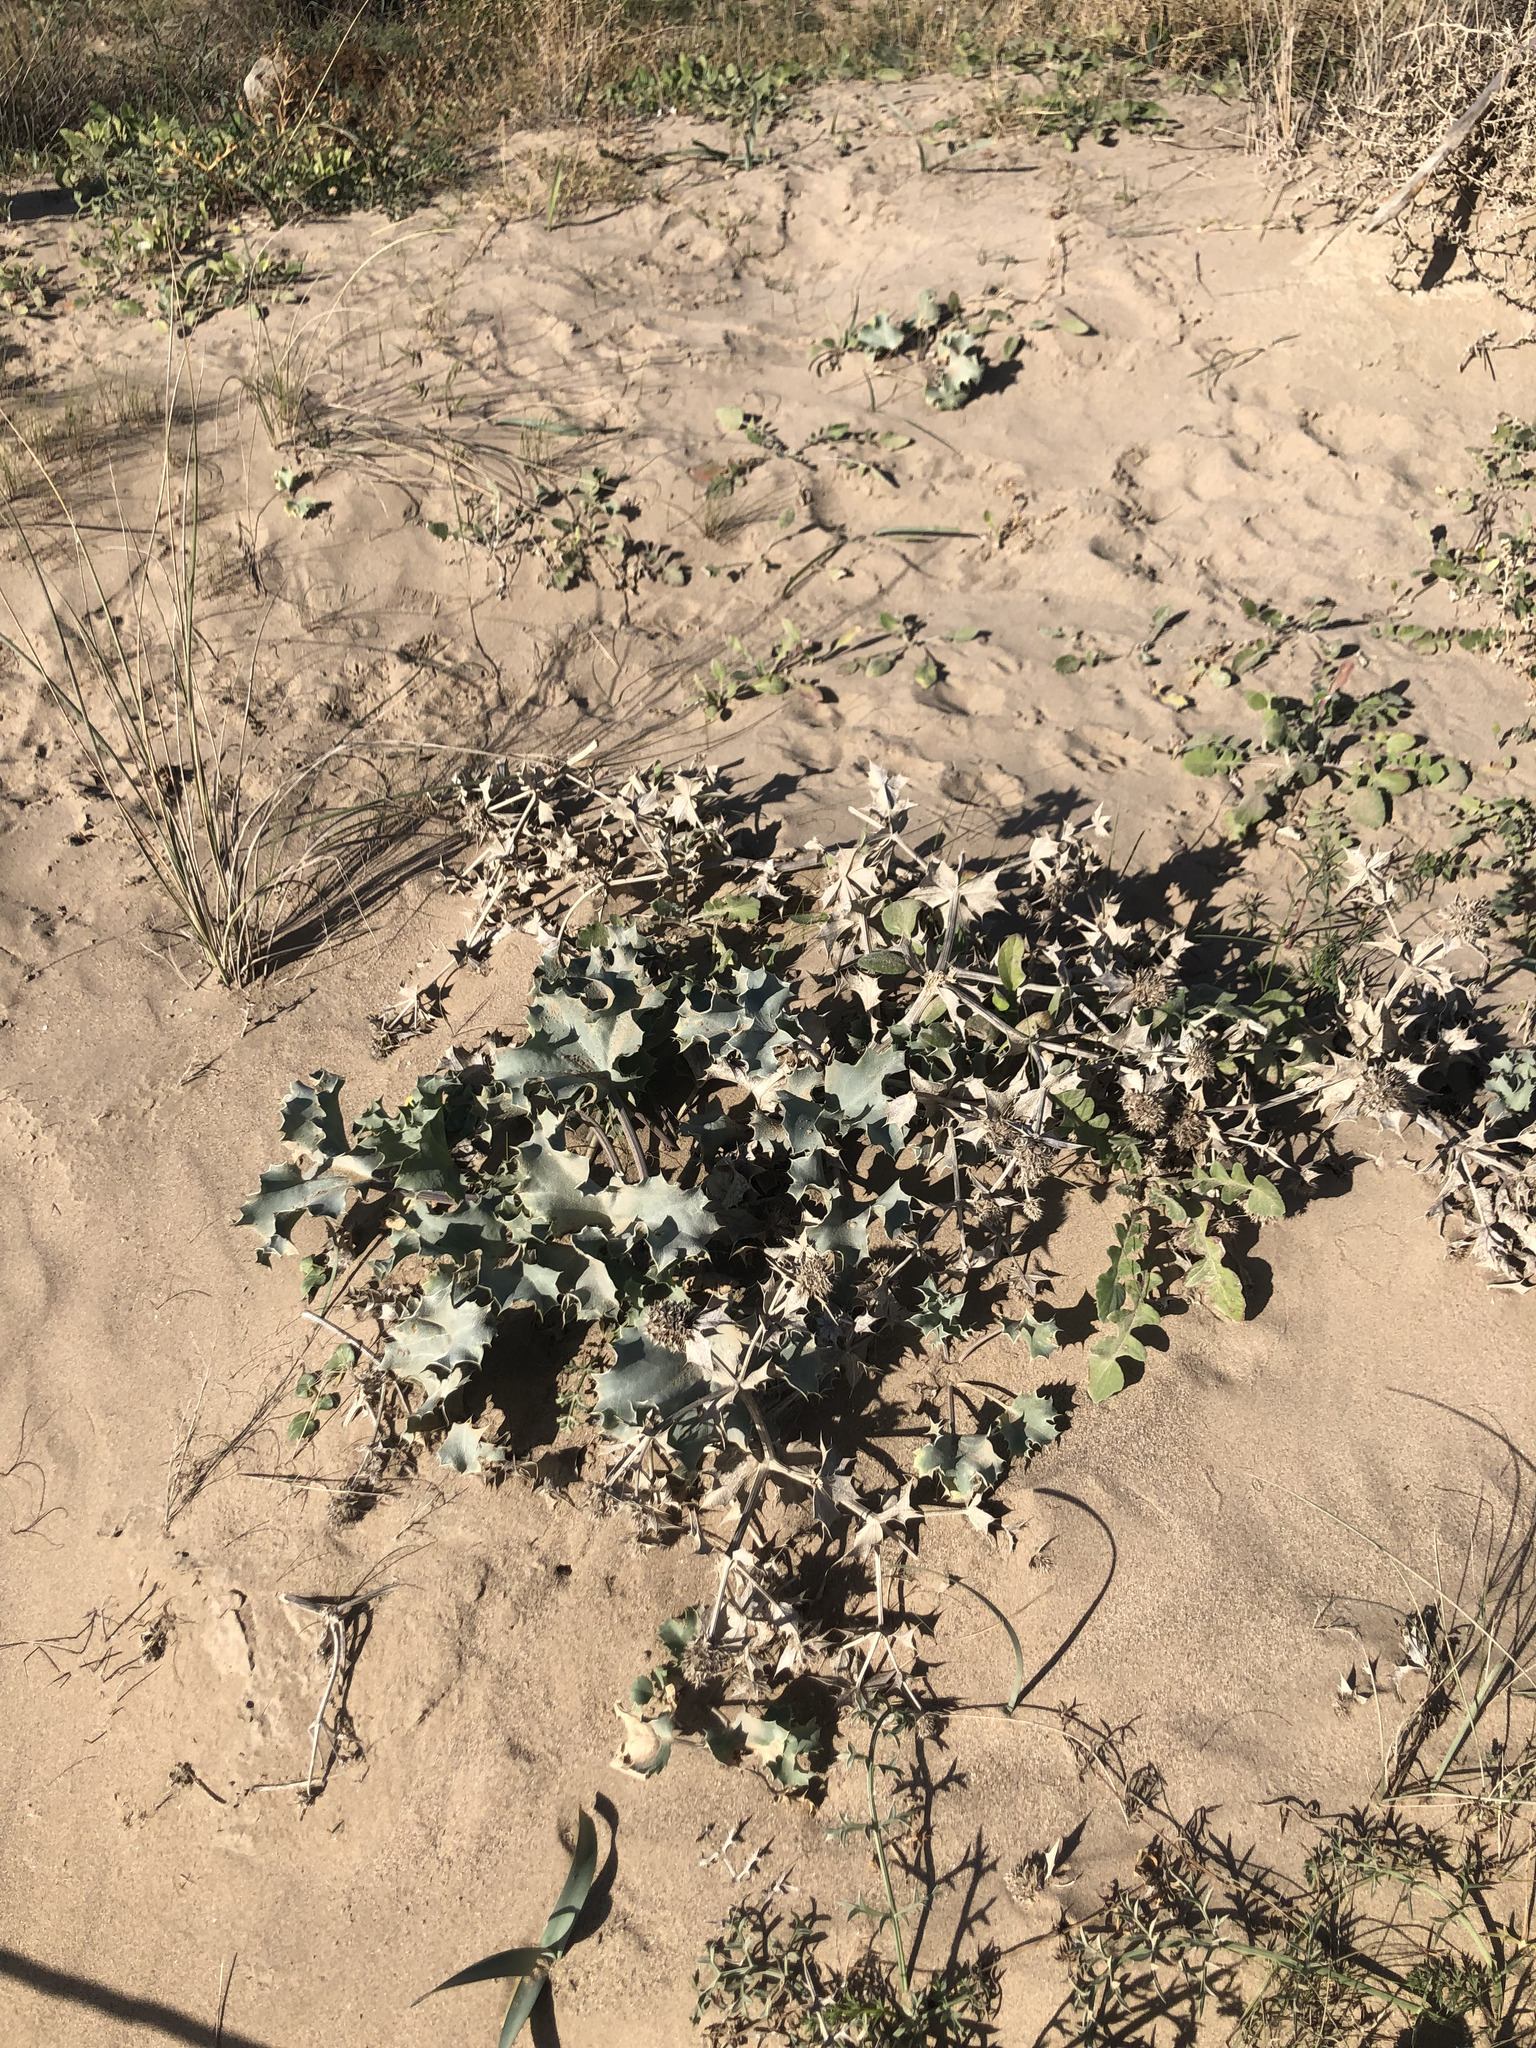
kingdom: Plantae
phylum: Tracheophyta
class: Magnoliopsida
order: Apiales
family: Apiaceae
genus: Eryngium
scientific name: Eryngium maritimum
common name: Sea-holly
